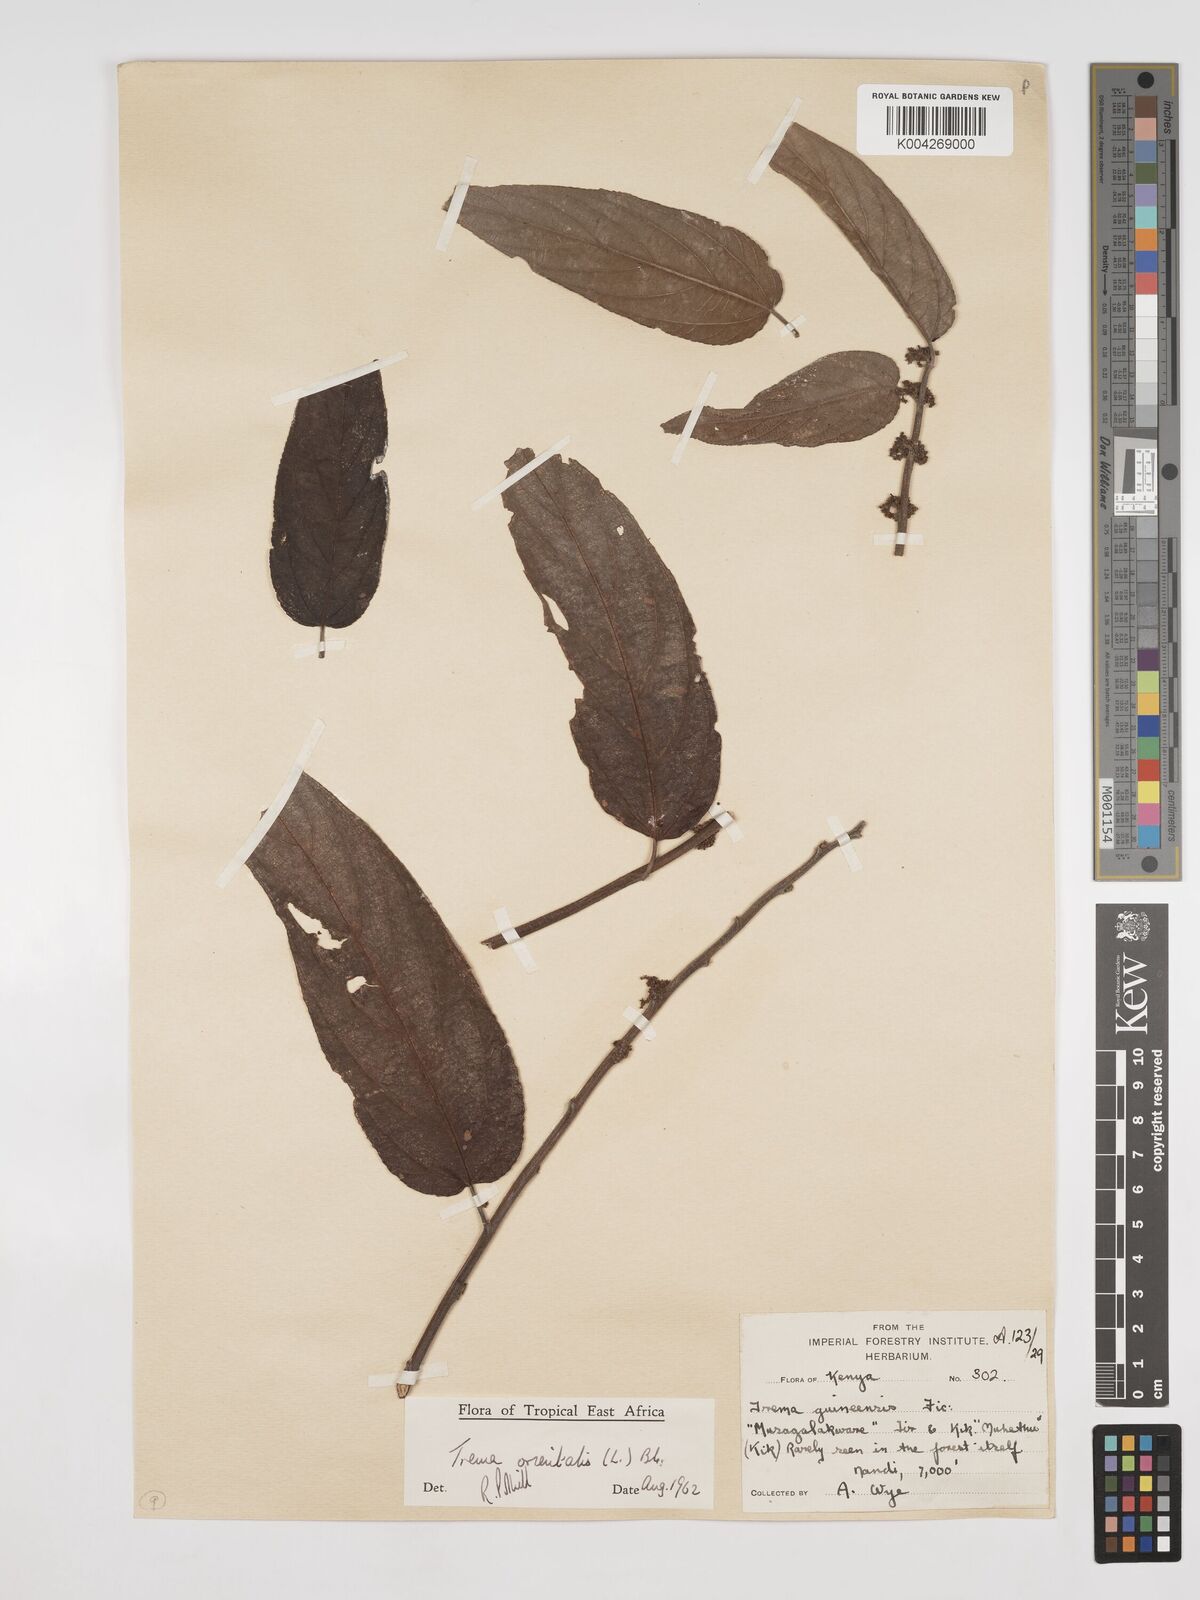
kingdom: Plantae
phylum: Tracheophyta
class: Magnoliopsida
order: Rosales
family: Cannabaceae
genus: Trema
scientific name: Trema orientale
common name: Indian charcoal tree
